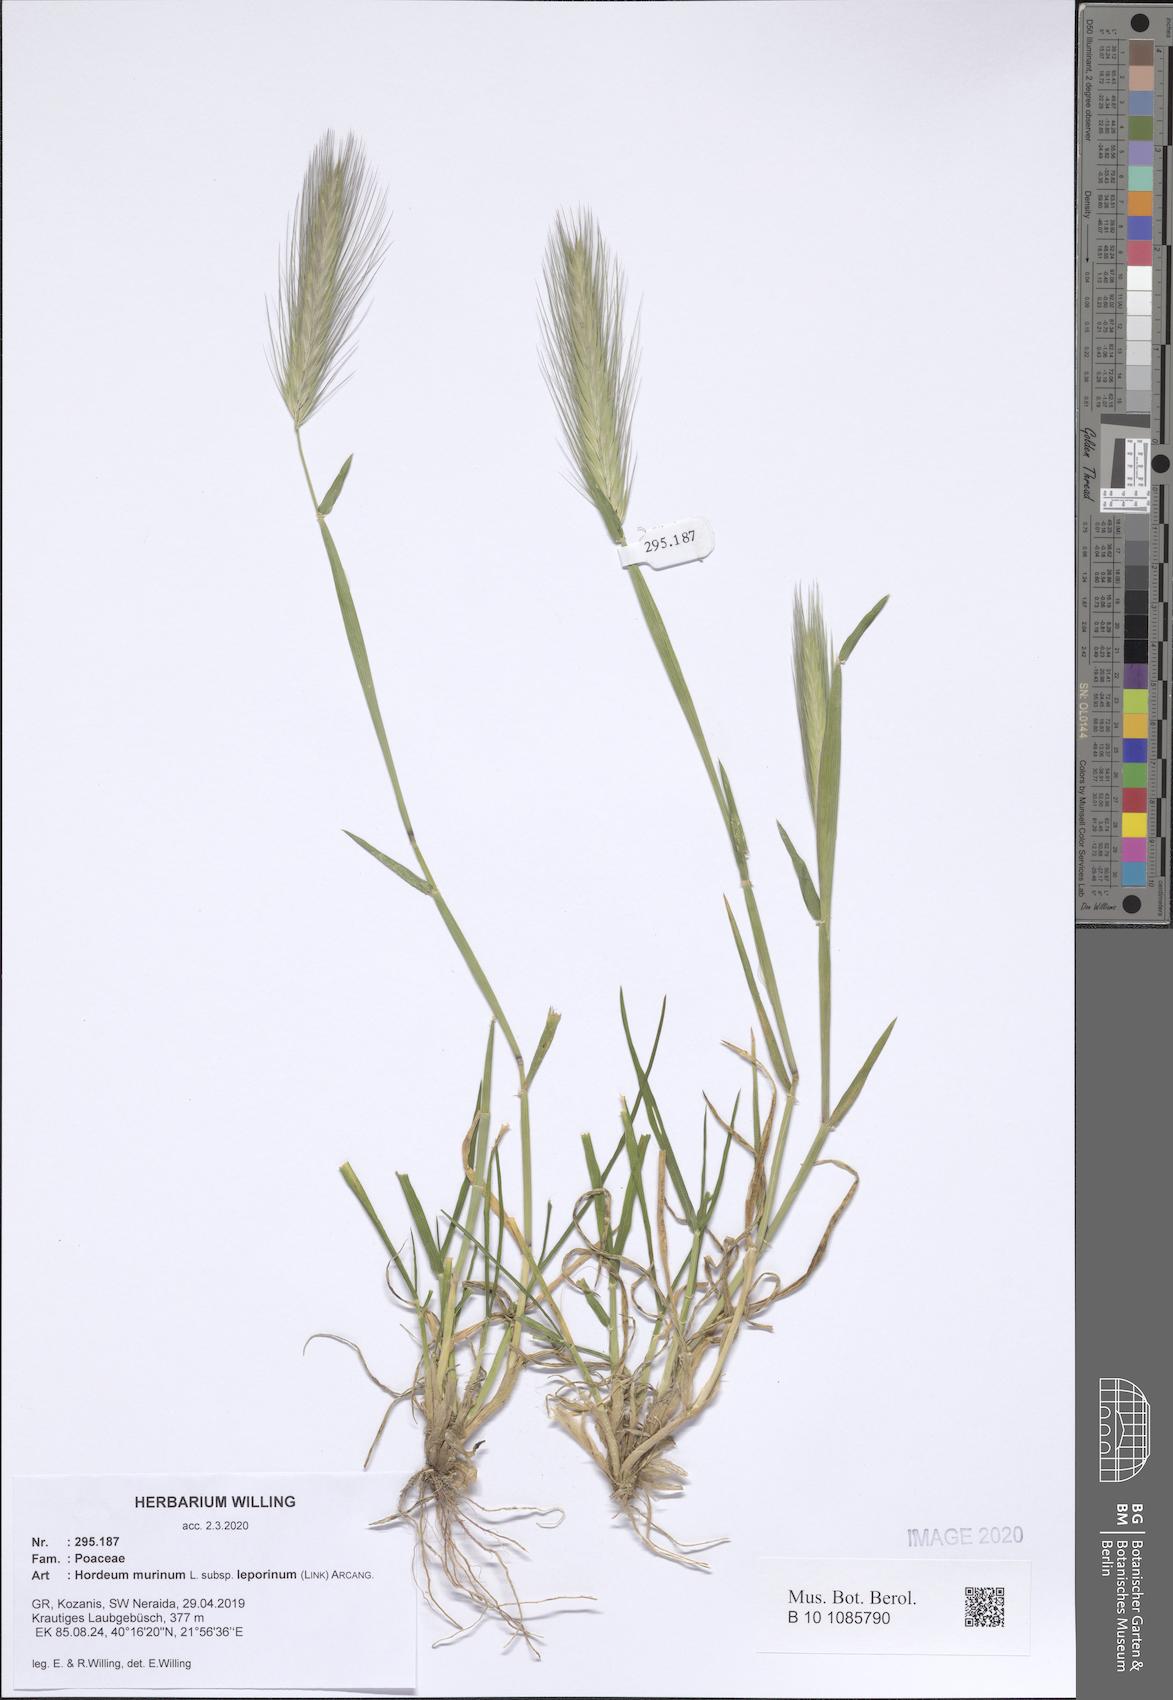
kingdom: Plantae
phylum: Tracheophyta
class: Liliopsida
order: Poales
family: Poaceae
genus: Hordeum
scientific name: Hordeum murinum
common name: Wall barley
